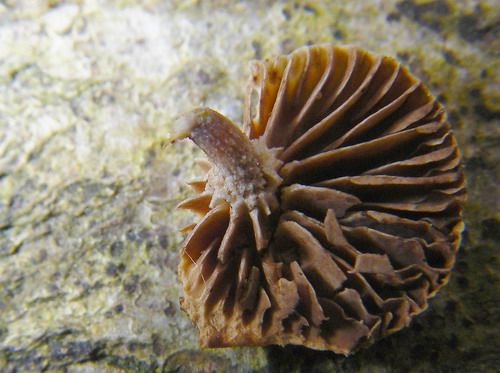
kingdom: Fungi
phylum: Basidiomycota
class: Agaricomycetes
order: Agaricales
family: Strophariaceae
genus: Deconica
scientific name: Deconica horizontalis
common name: ved-stråhat
